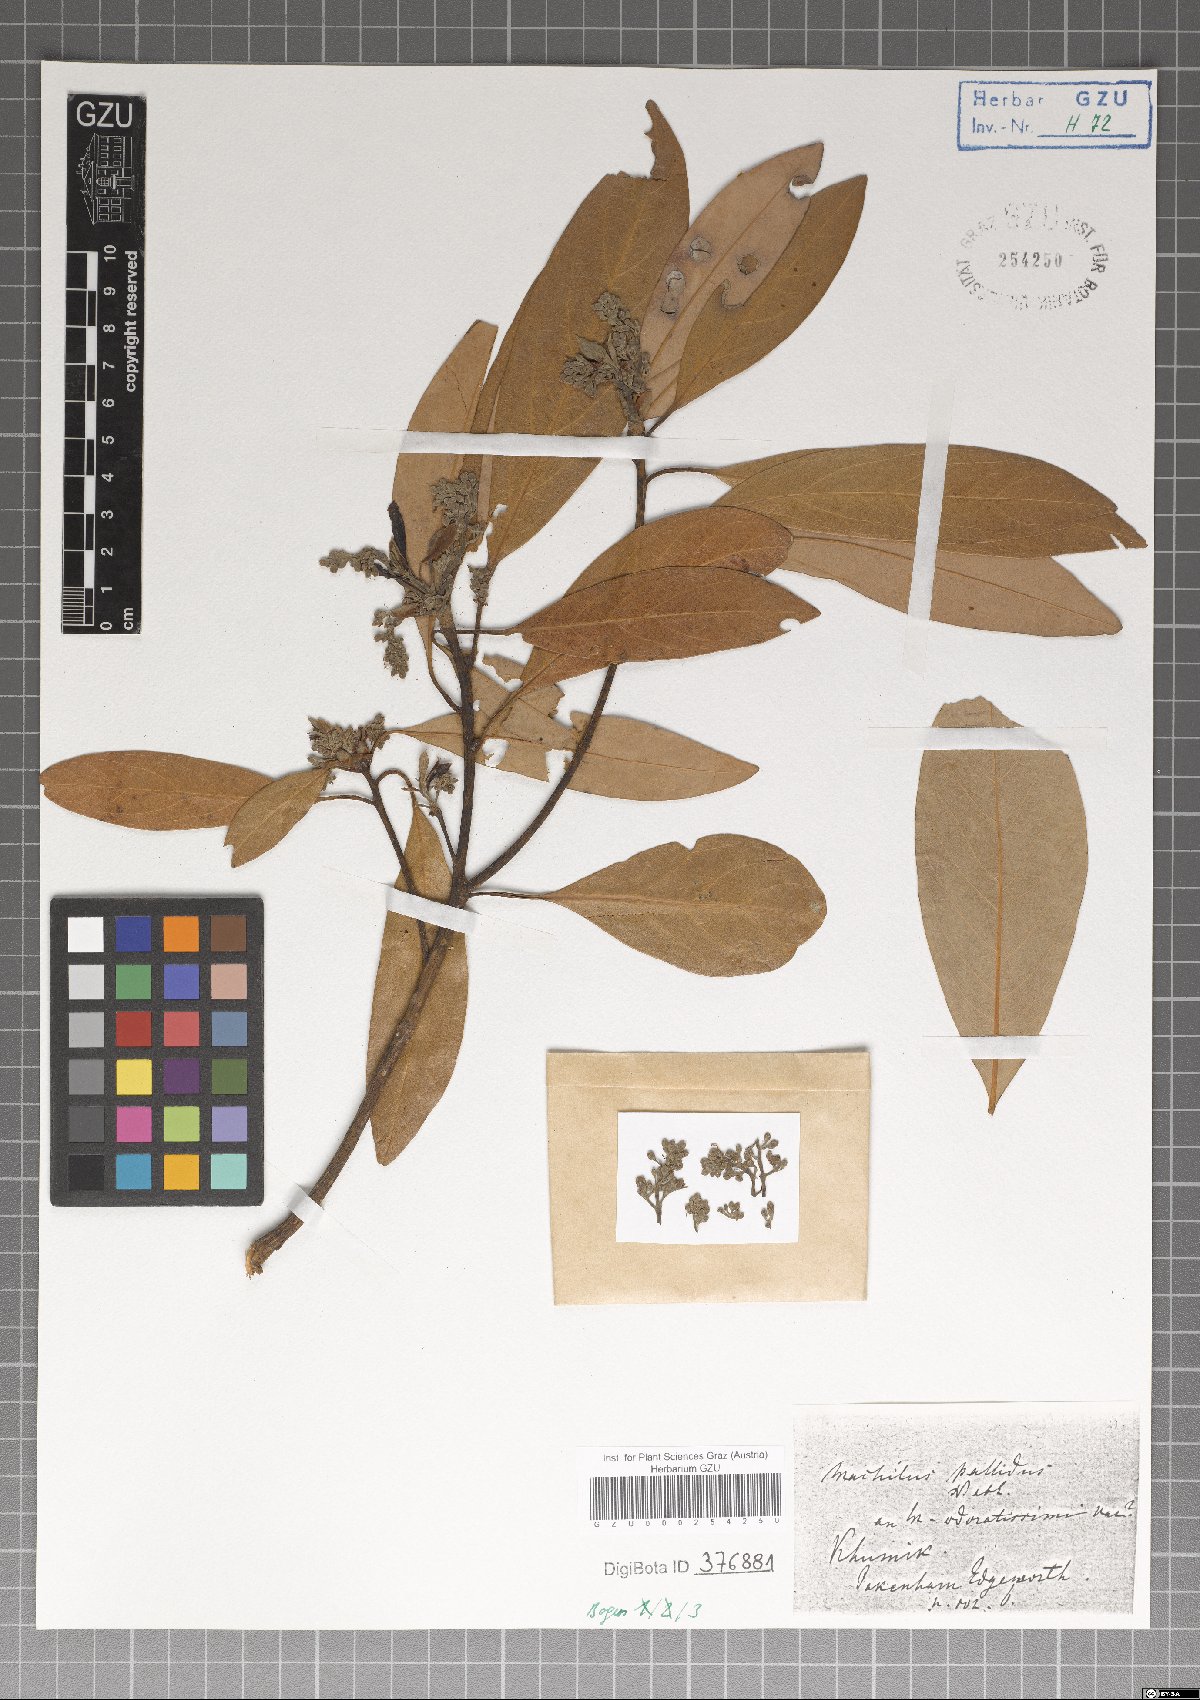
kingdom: Plantae
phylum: Tracheophyta
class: Magnoliopsida
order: Laurales
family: Lauraceae
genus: Persea
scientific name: Persea
